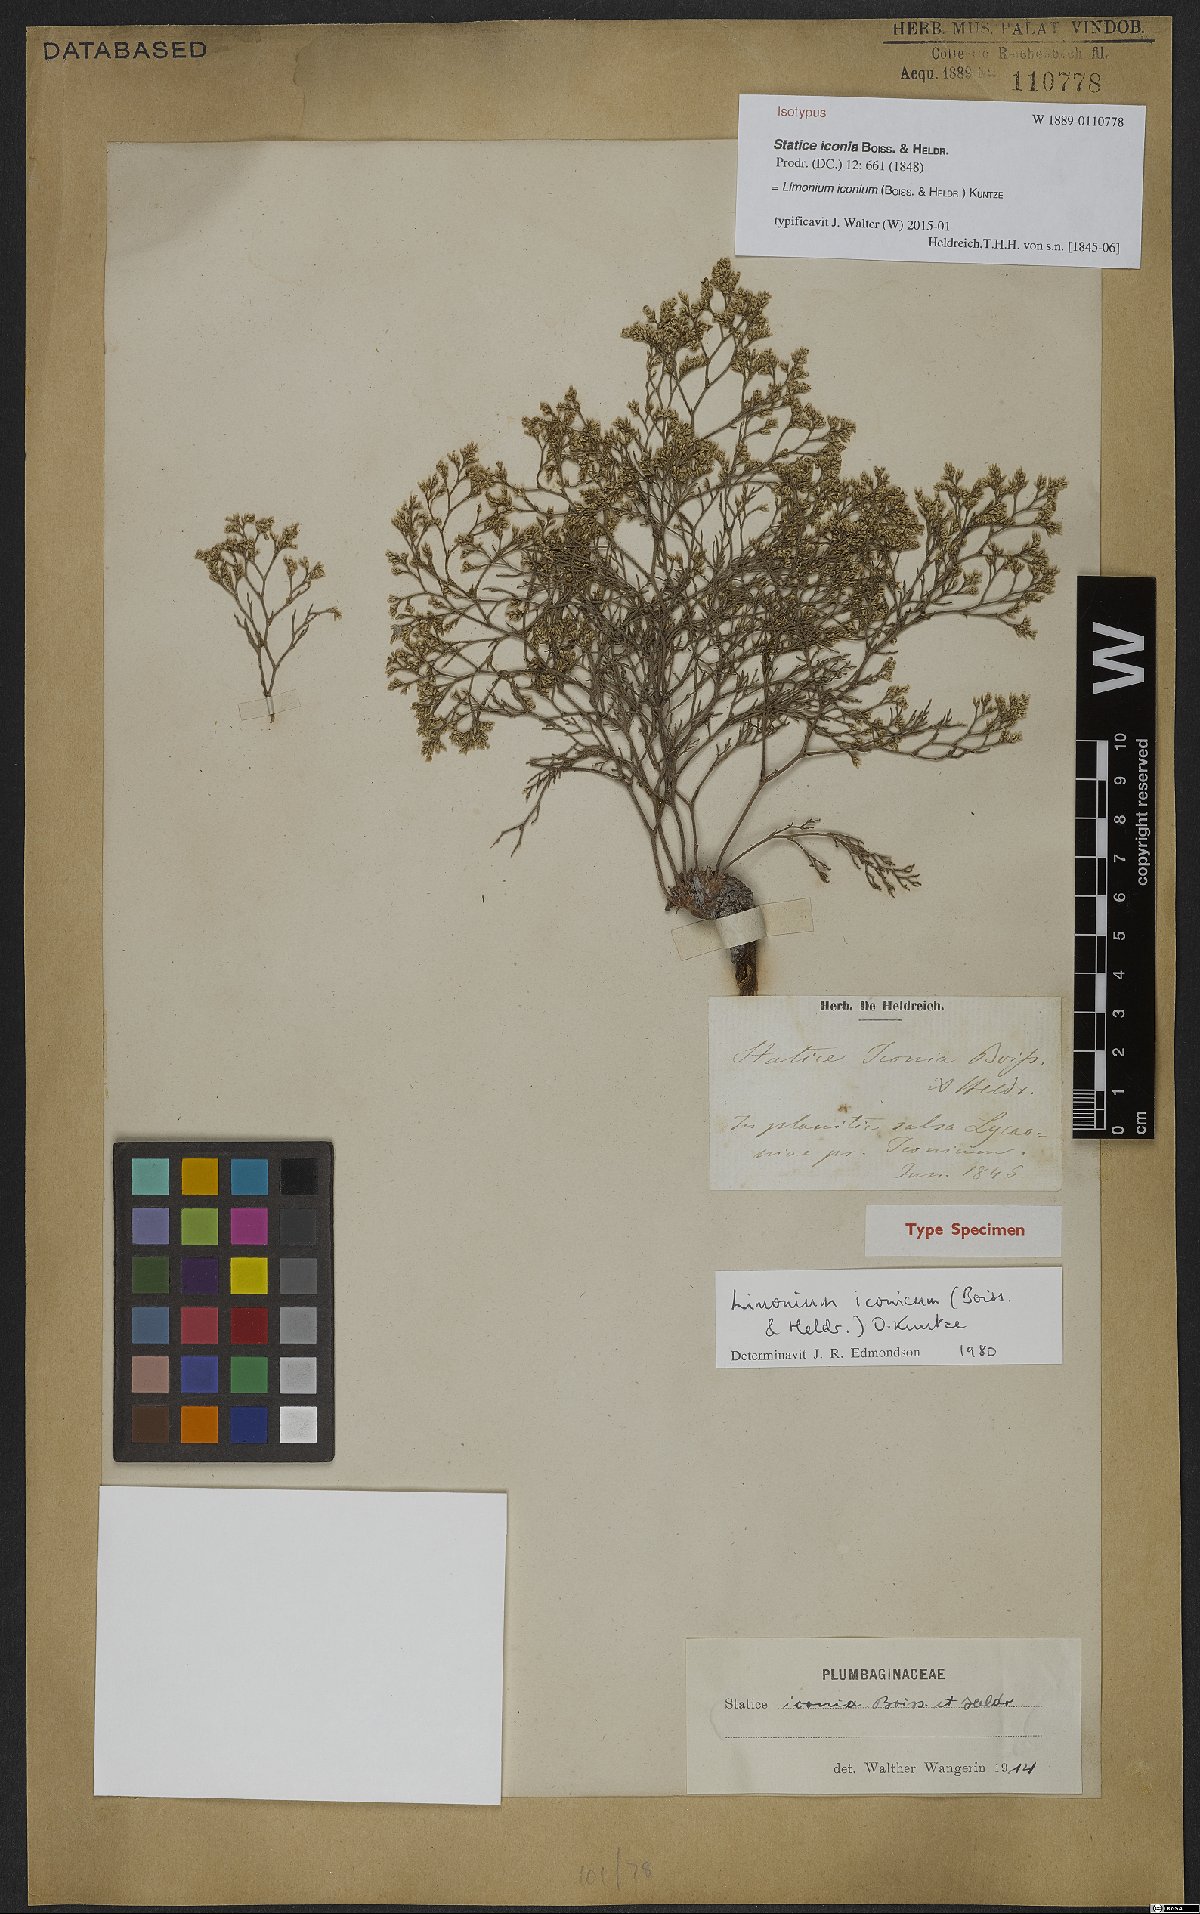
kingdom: Plantae
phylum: Tracheophyta
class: Magnoliopsida
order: Caryophyllales
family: Plumbaginaceae
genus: Limonium
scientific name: Limonium iconium
